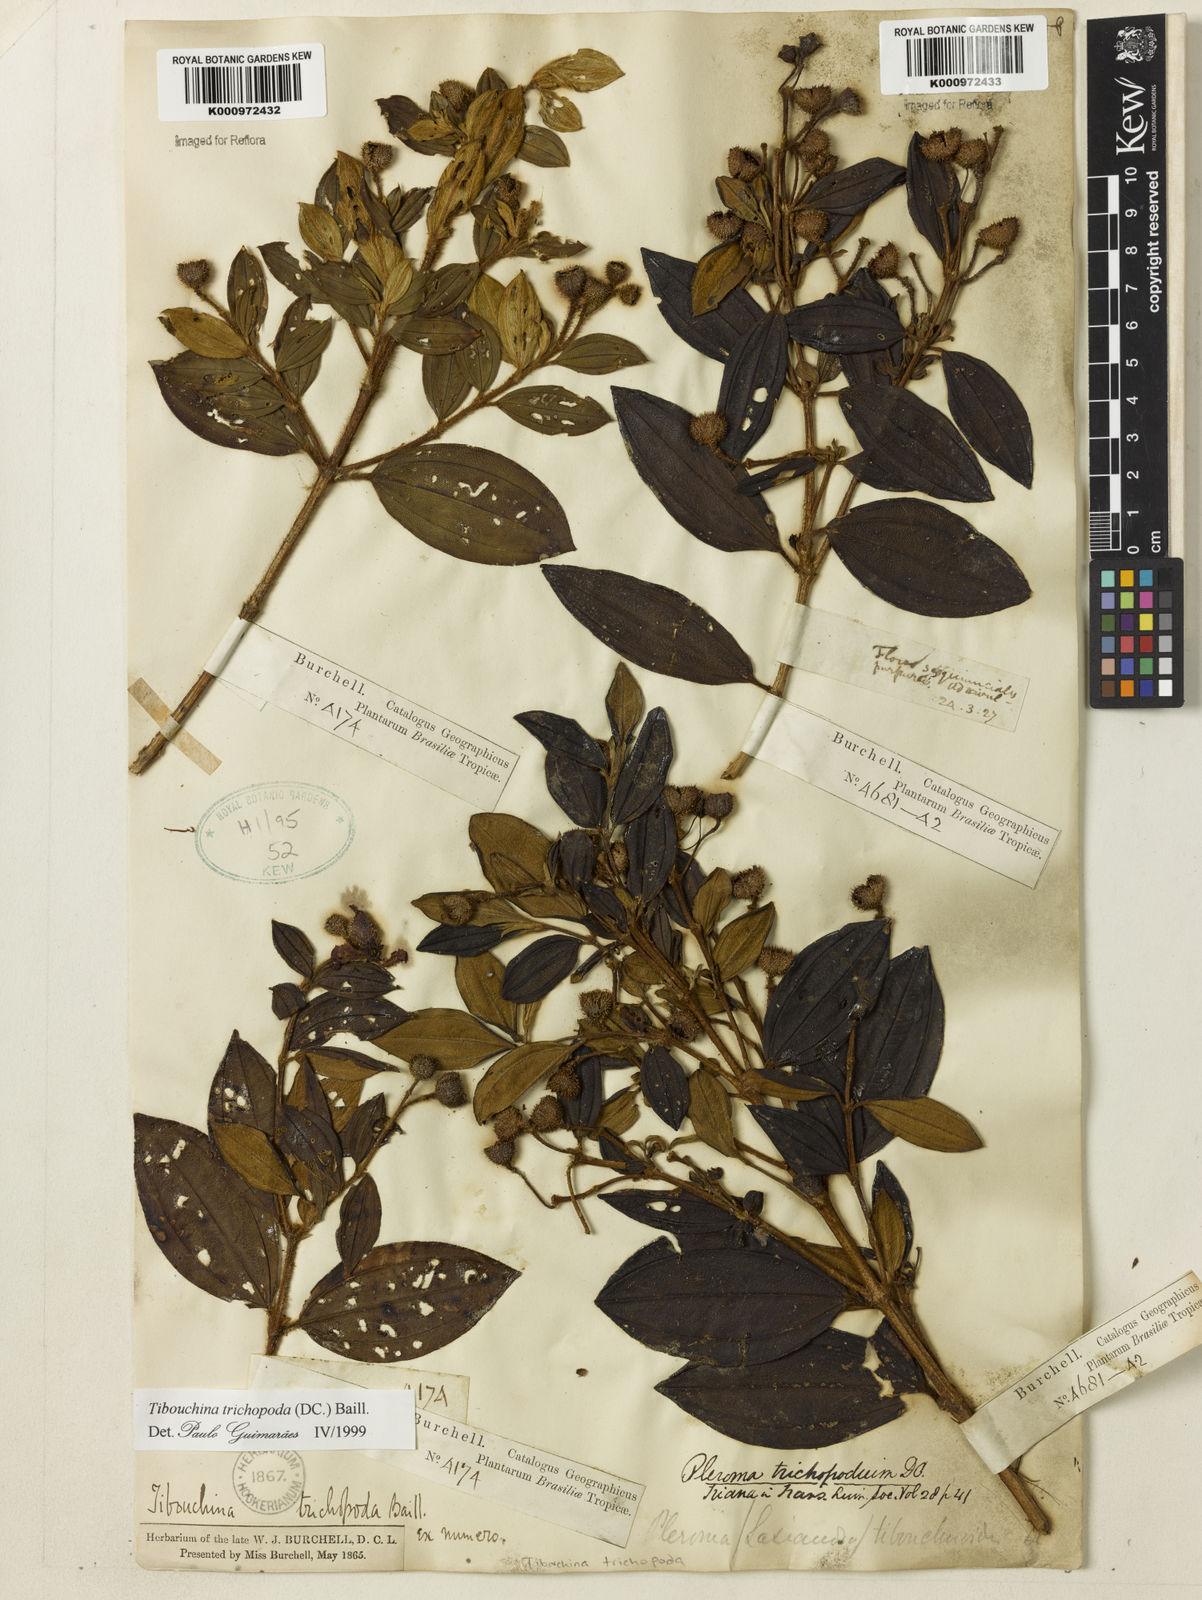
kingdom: Plantae
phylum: Tracheophyta
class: Magnoliopsida
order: Myrtales
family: Melastomataceae
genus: Pleroma
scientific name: Pleroma trichopodum
